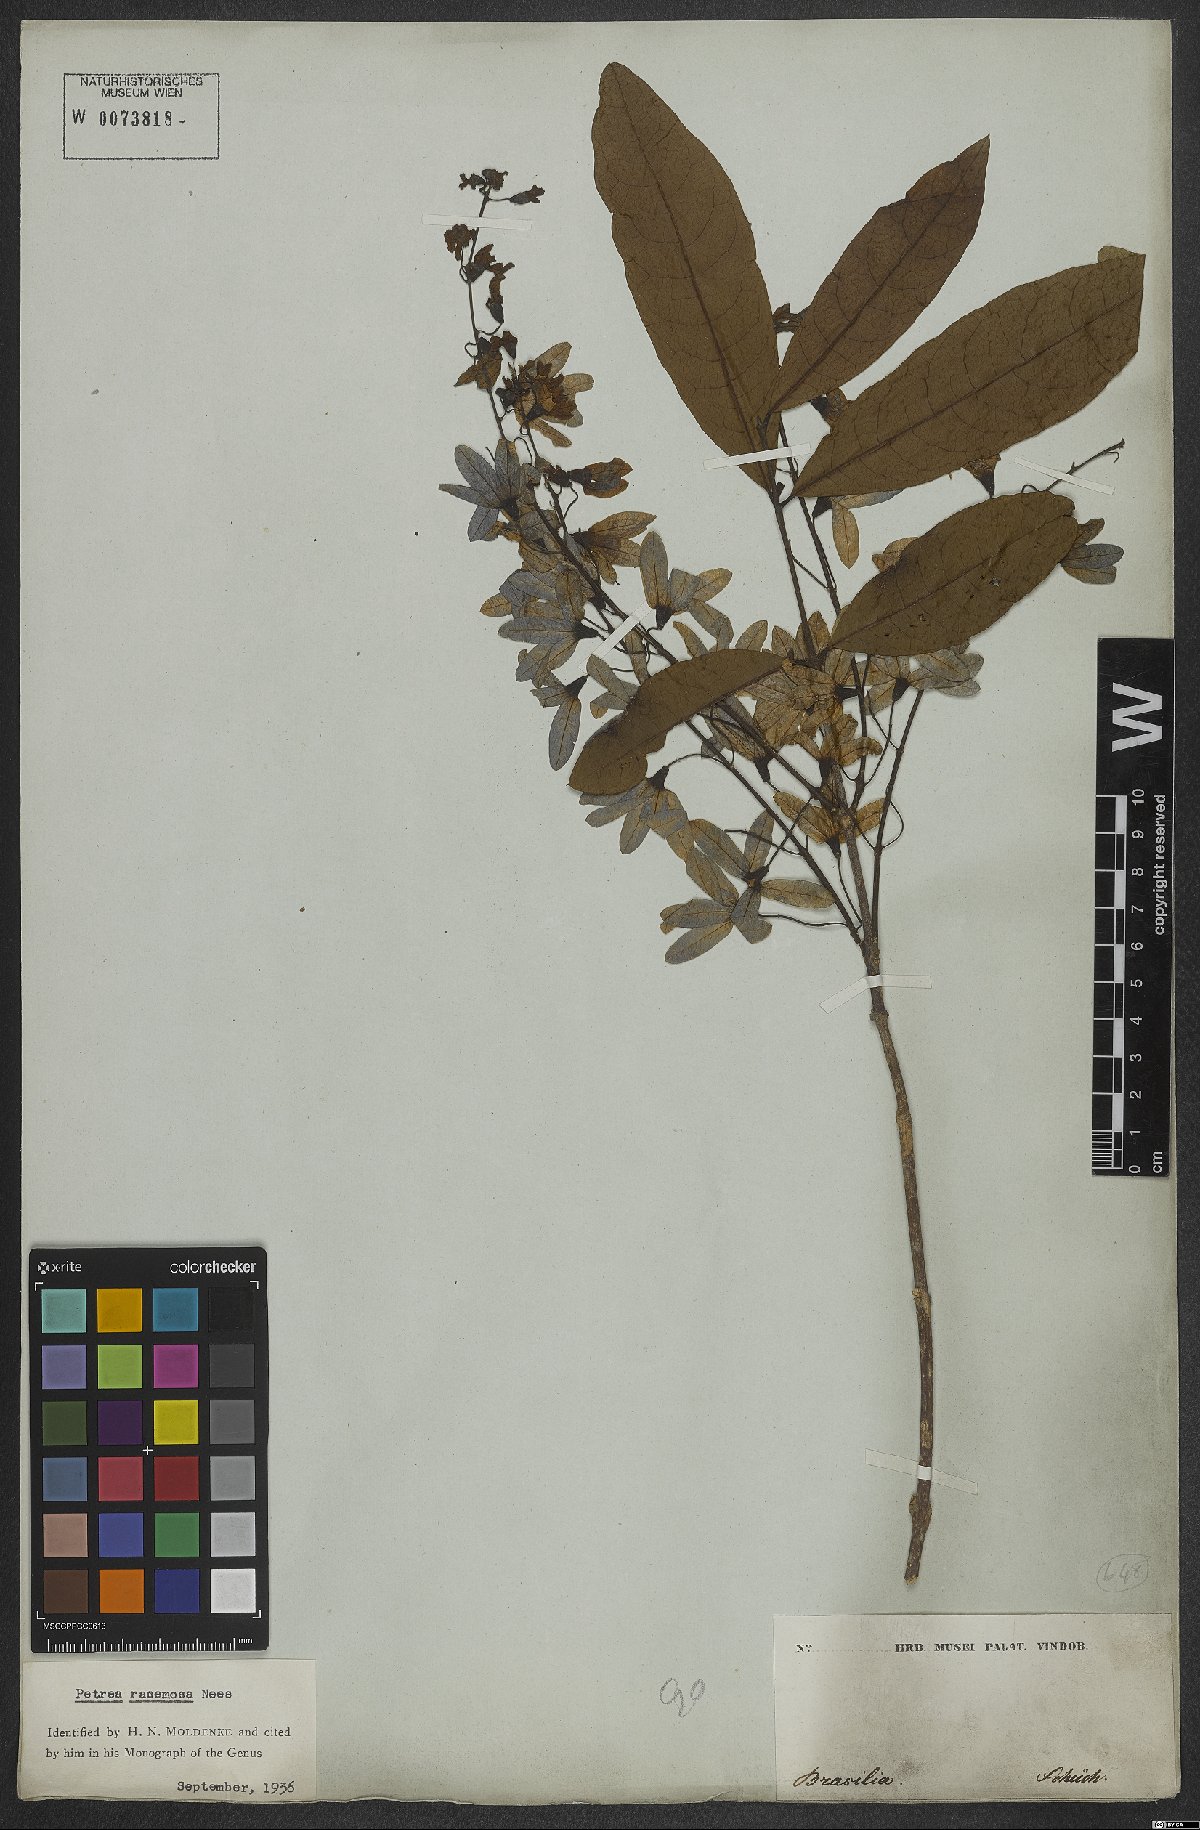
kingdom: Plantae
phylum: Tracheophyta
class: Magnoliopsida
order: Lamiales
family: Verbenaceae
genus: Petrea
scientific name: Petrea volubilis
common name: Queen's-wreath
